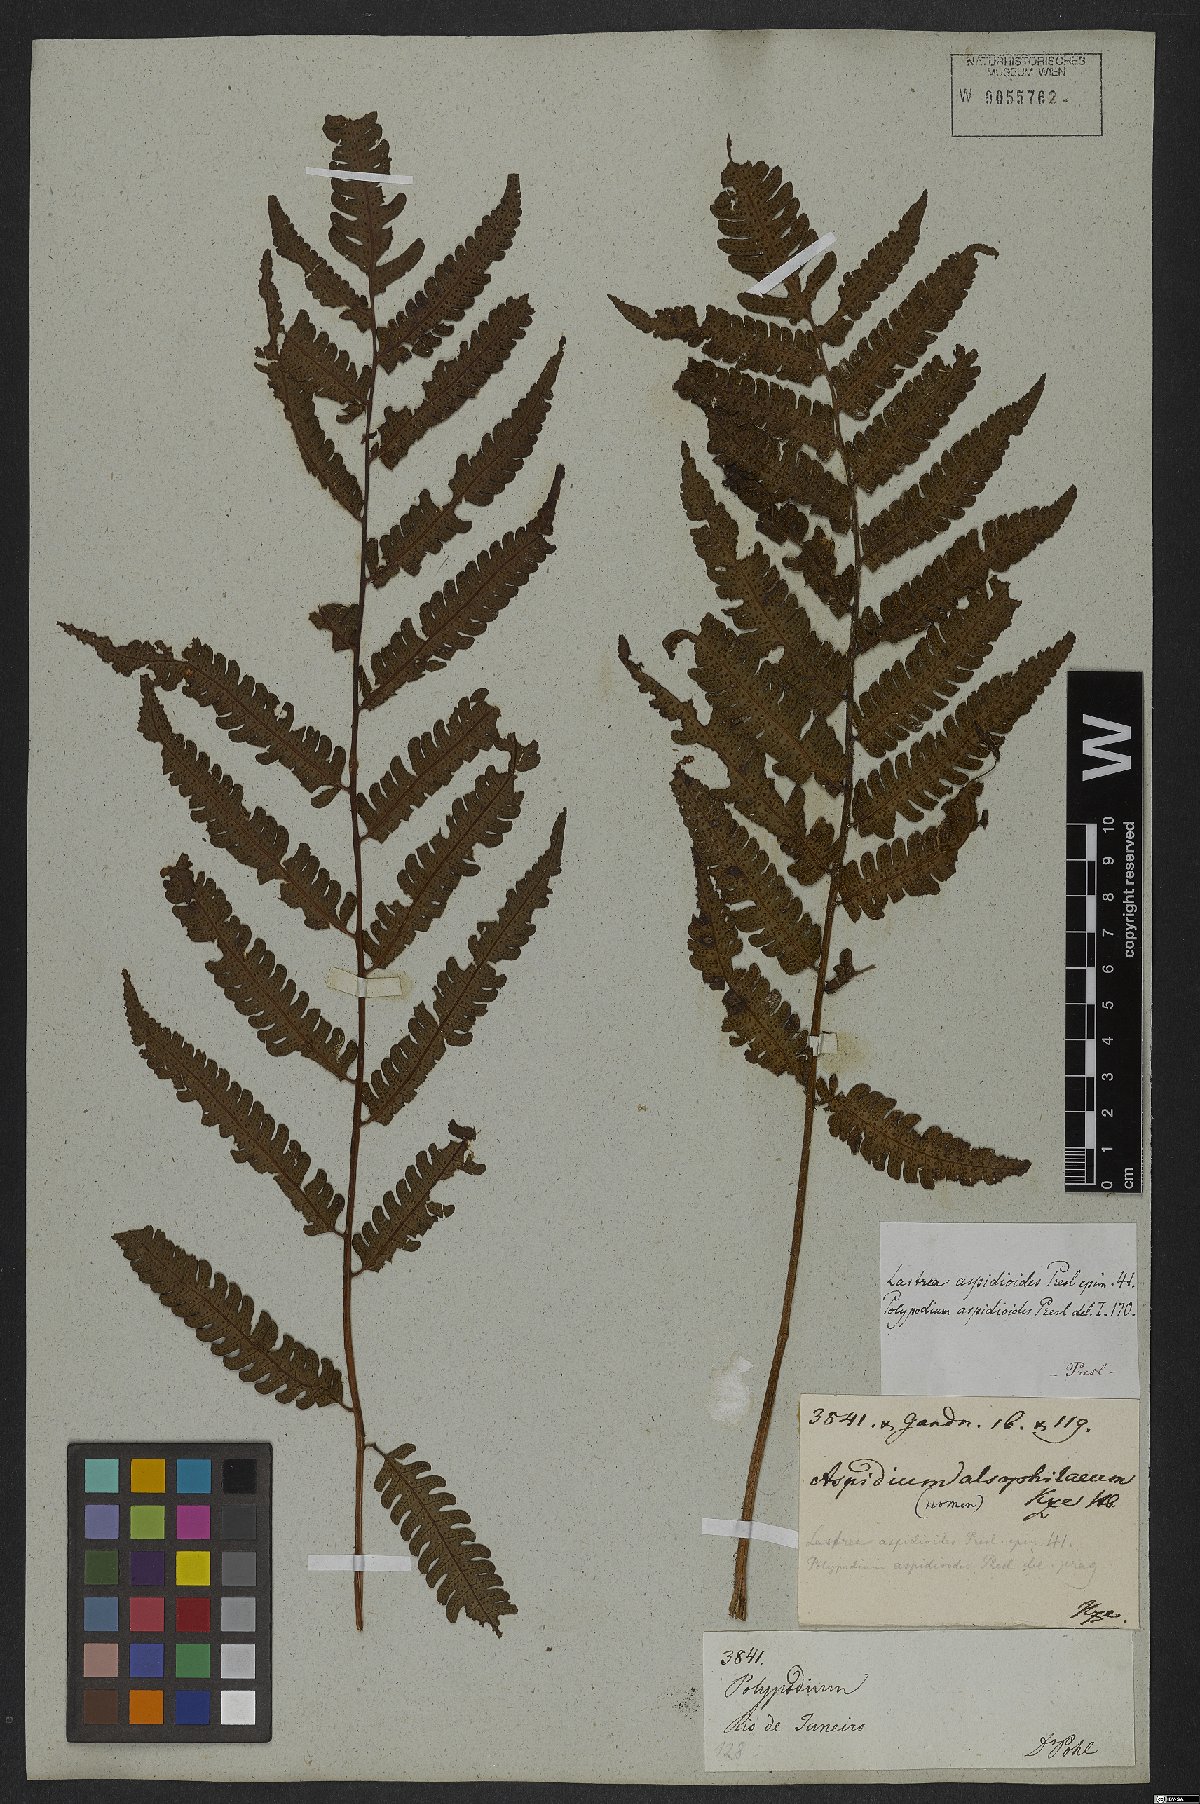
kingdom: Plantae
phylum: Tracheophyta
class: Polypodiopsida
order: Polypodiales
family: Dryopteridaceae
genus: Ctenitis
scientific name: Ctenitis aspidioides
